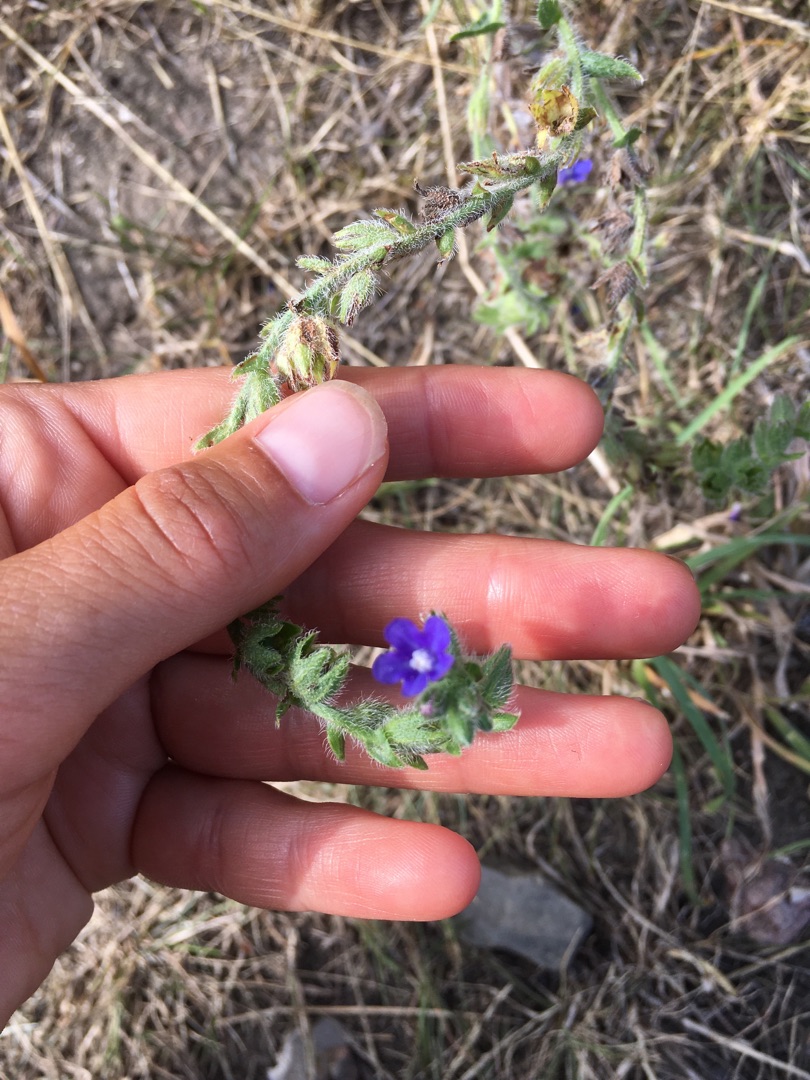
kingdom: Plantae
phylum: Tracheophyta
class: Magnoliopsida
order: Boraginales
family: Boraginaceae
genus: Anchusa
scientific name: Anchusa officinalis
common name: Læge-oksetunge
